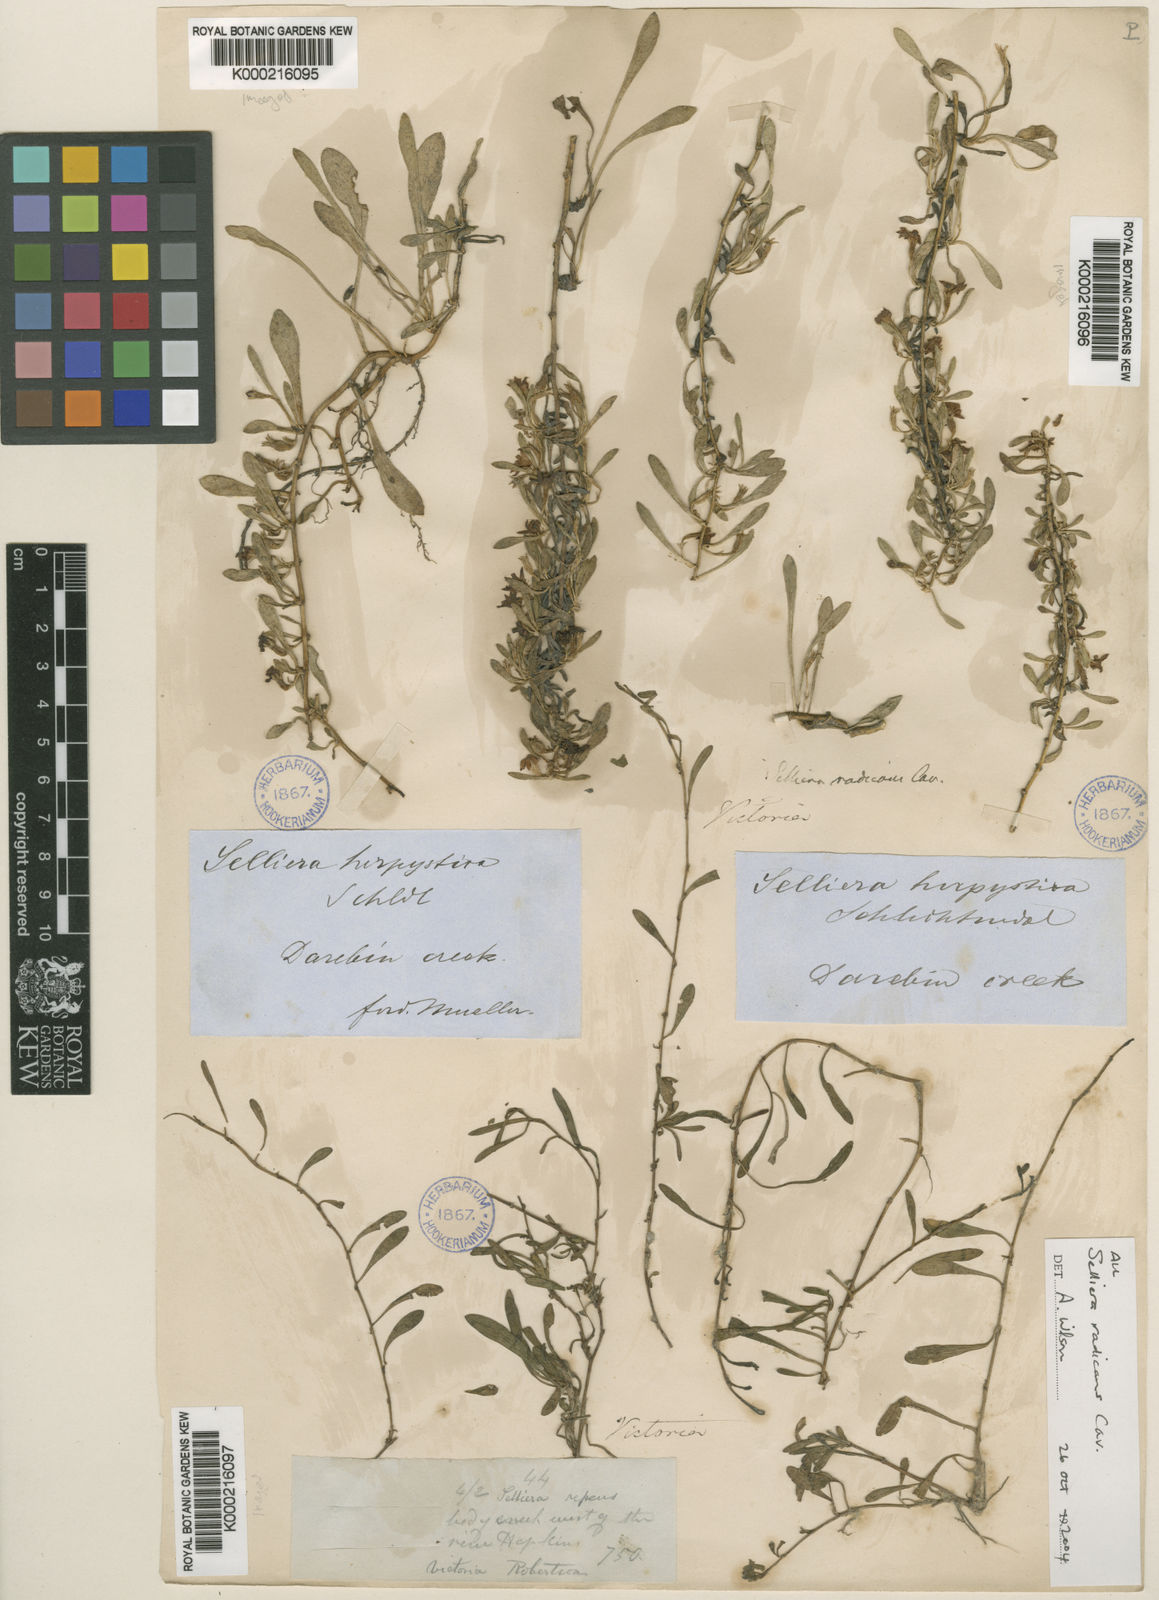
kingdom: Plantae
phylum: Tracheophyta
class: Magnoliopsida
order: Asterales
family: Goodeniaceae
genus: Goodenia
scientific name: Goodenia radicans
